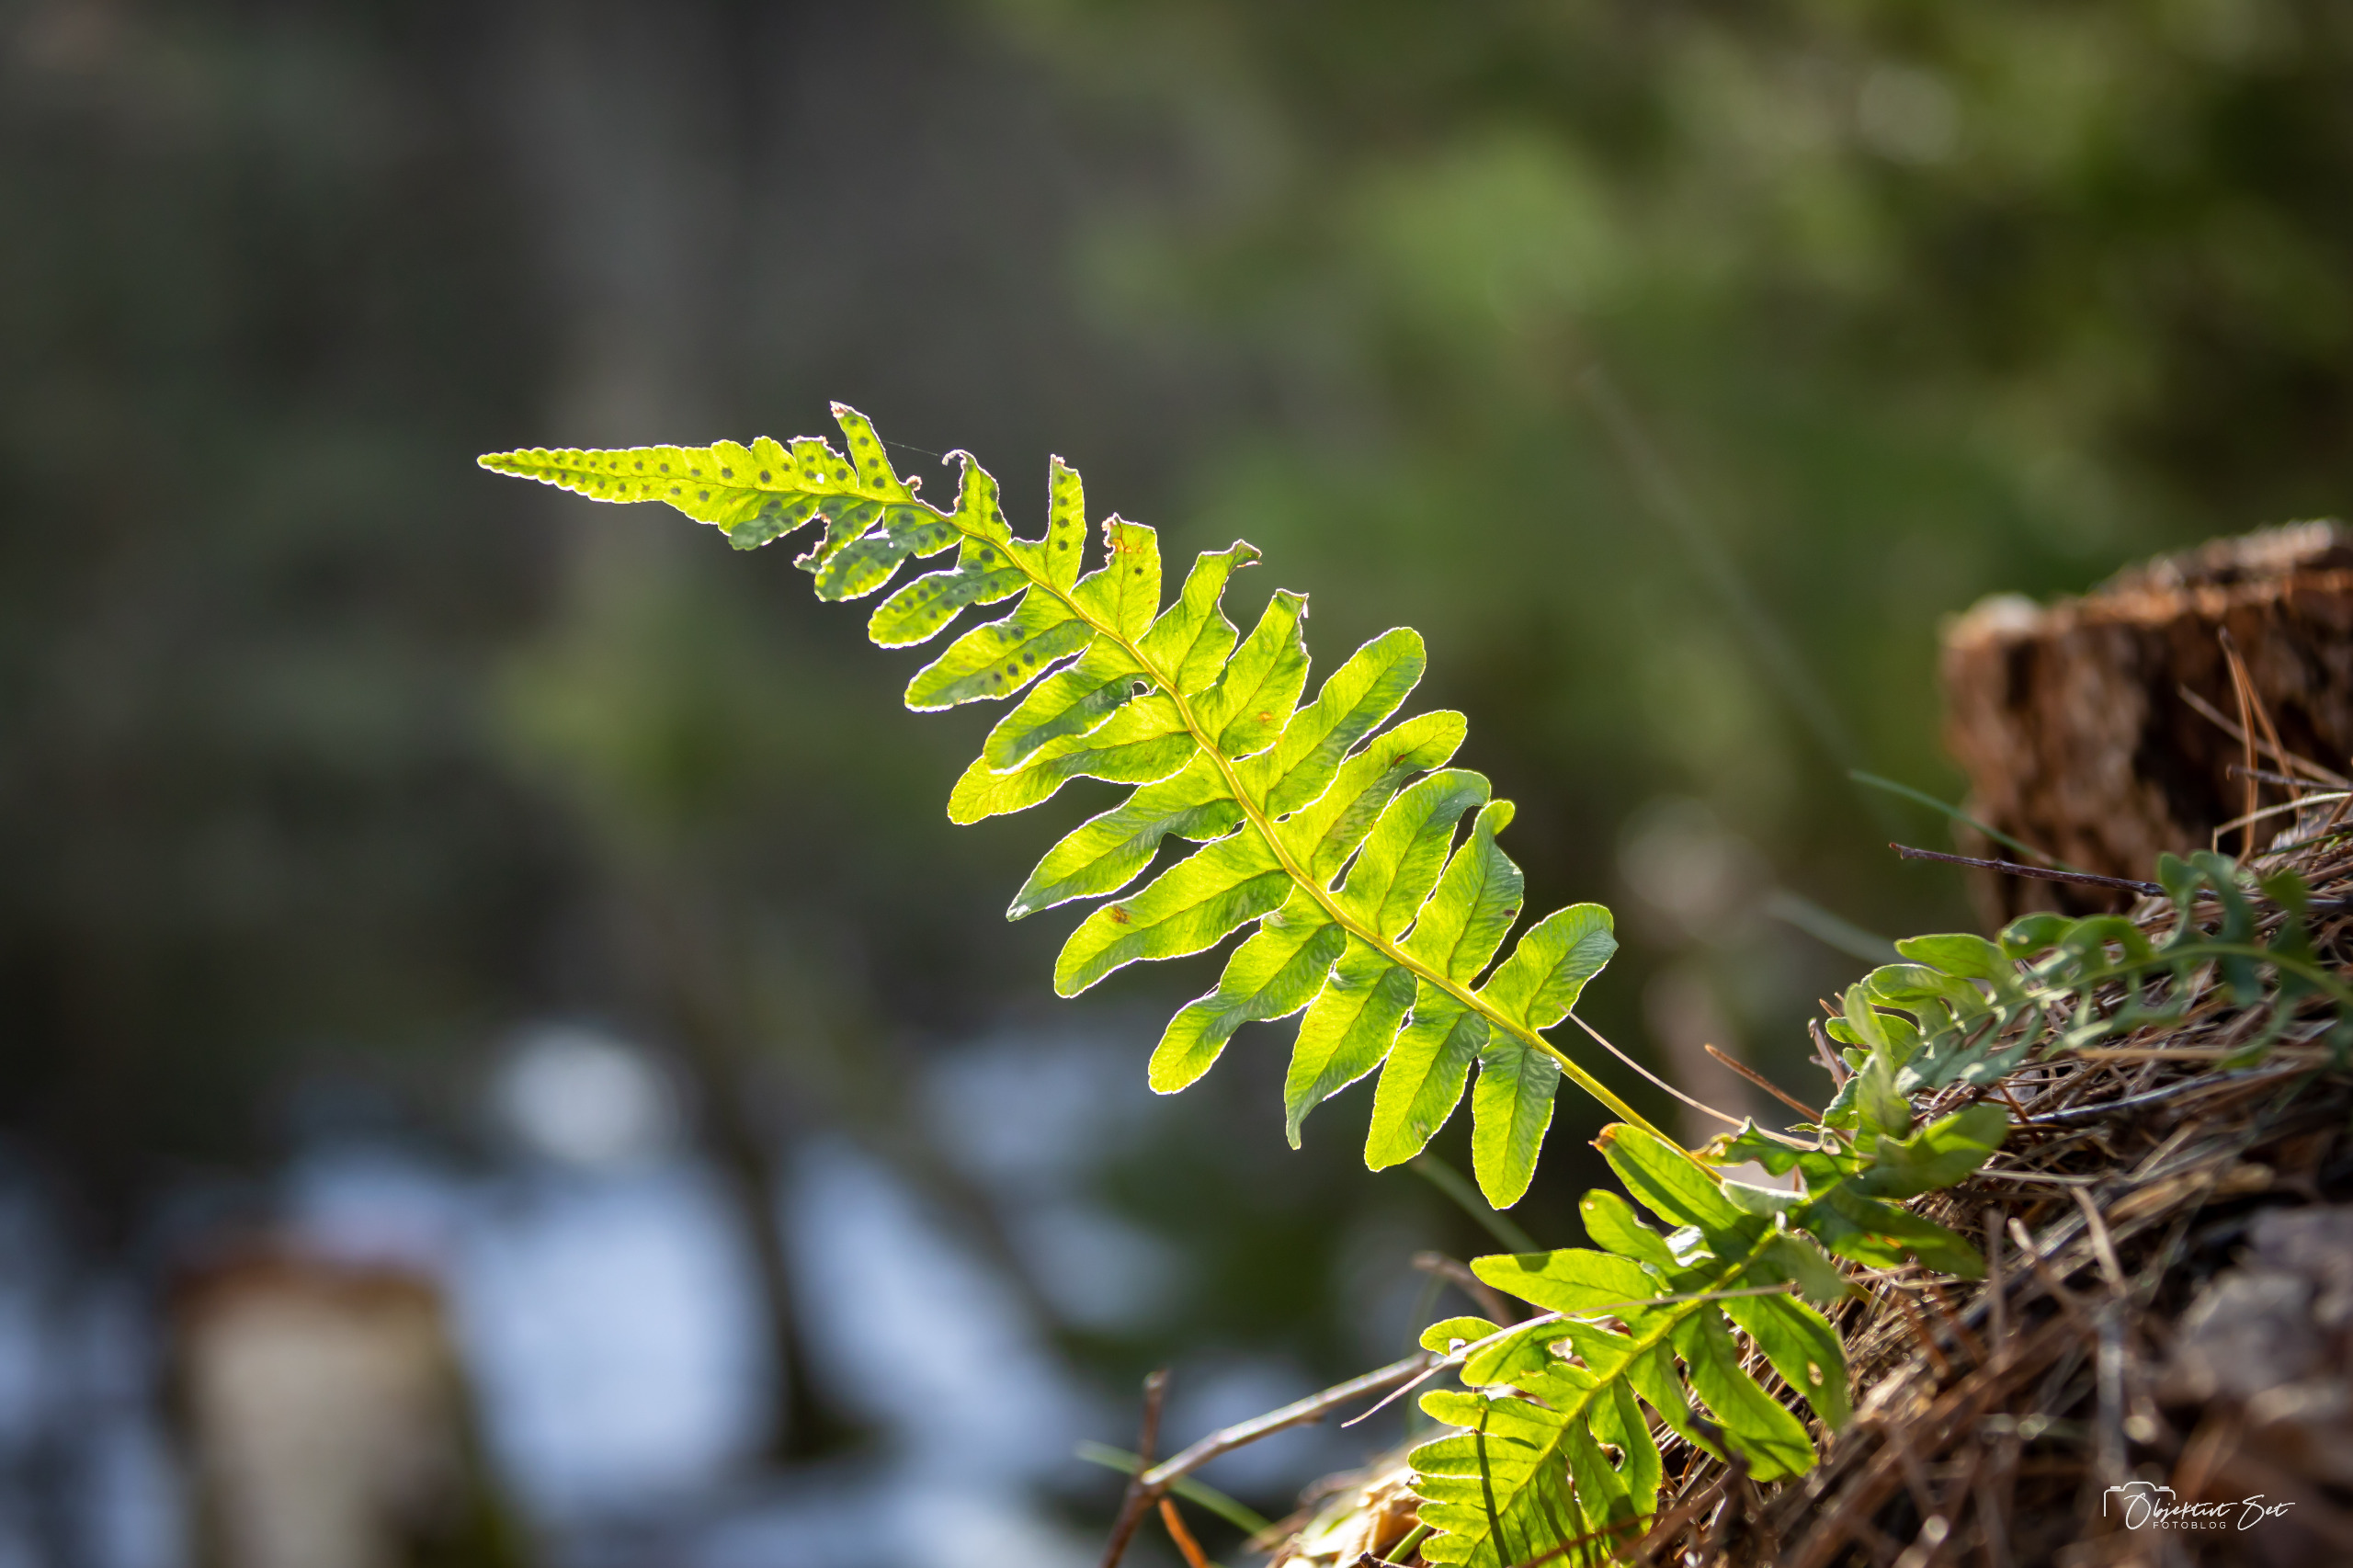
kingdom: Plantae
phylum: Tracheophyta
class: Polypodiopsida
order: Polypodiales
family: Polypodiaceae
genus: Polypodium
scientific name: Polypodium vulgare
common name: Almindelig engelsød
